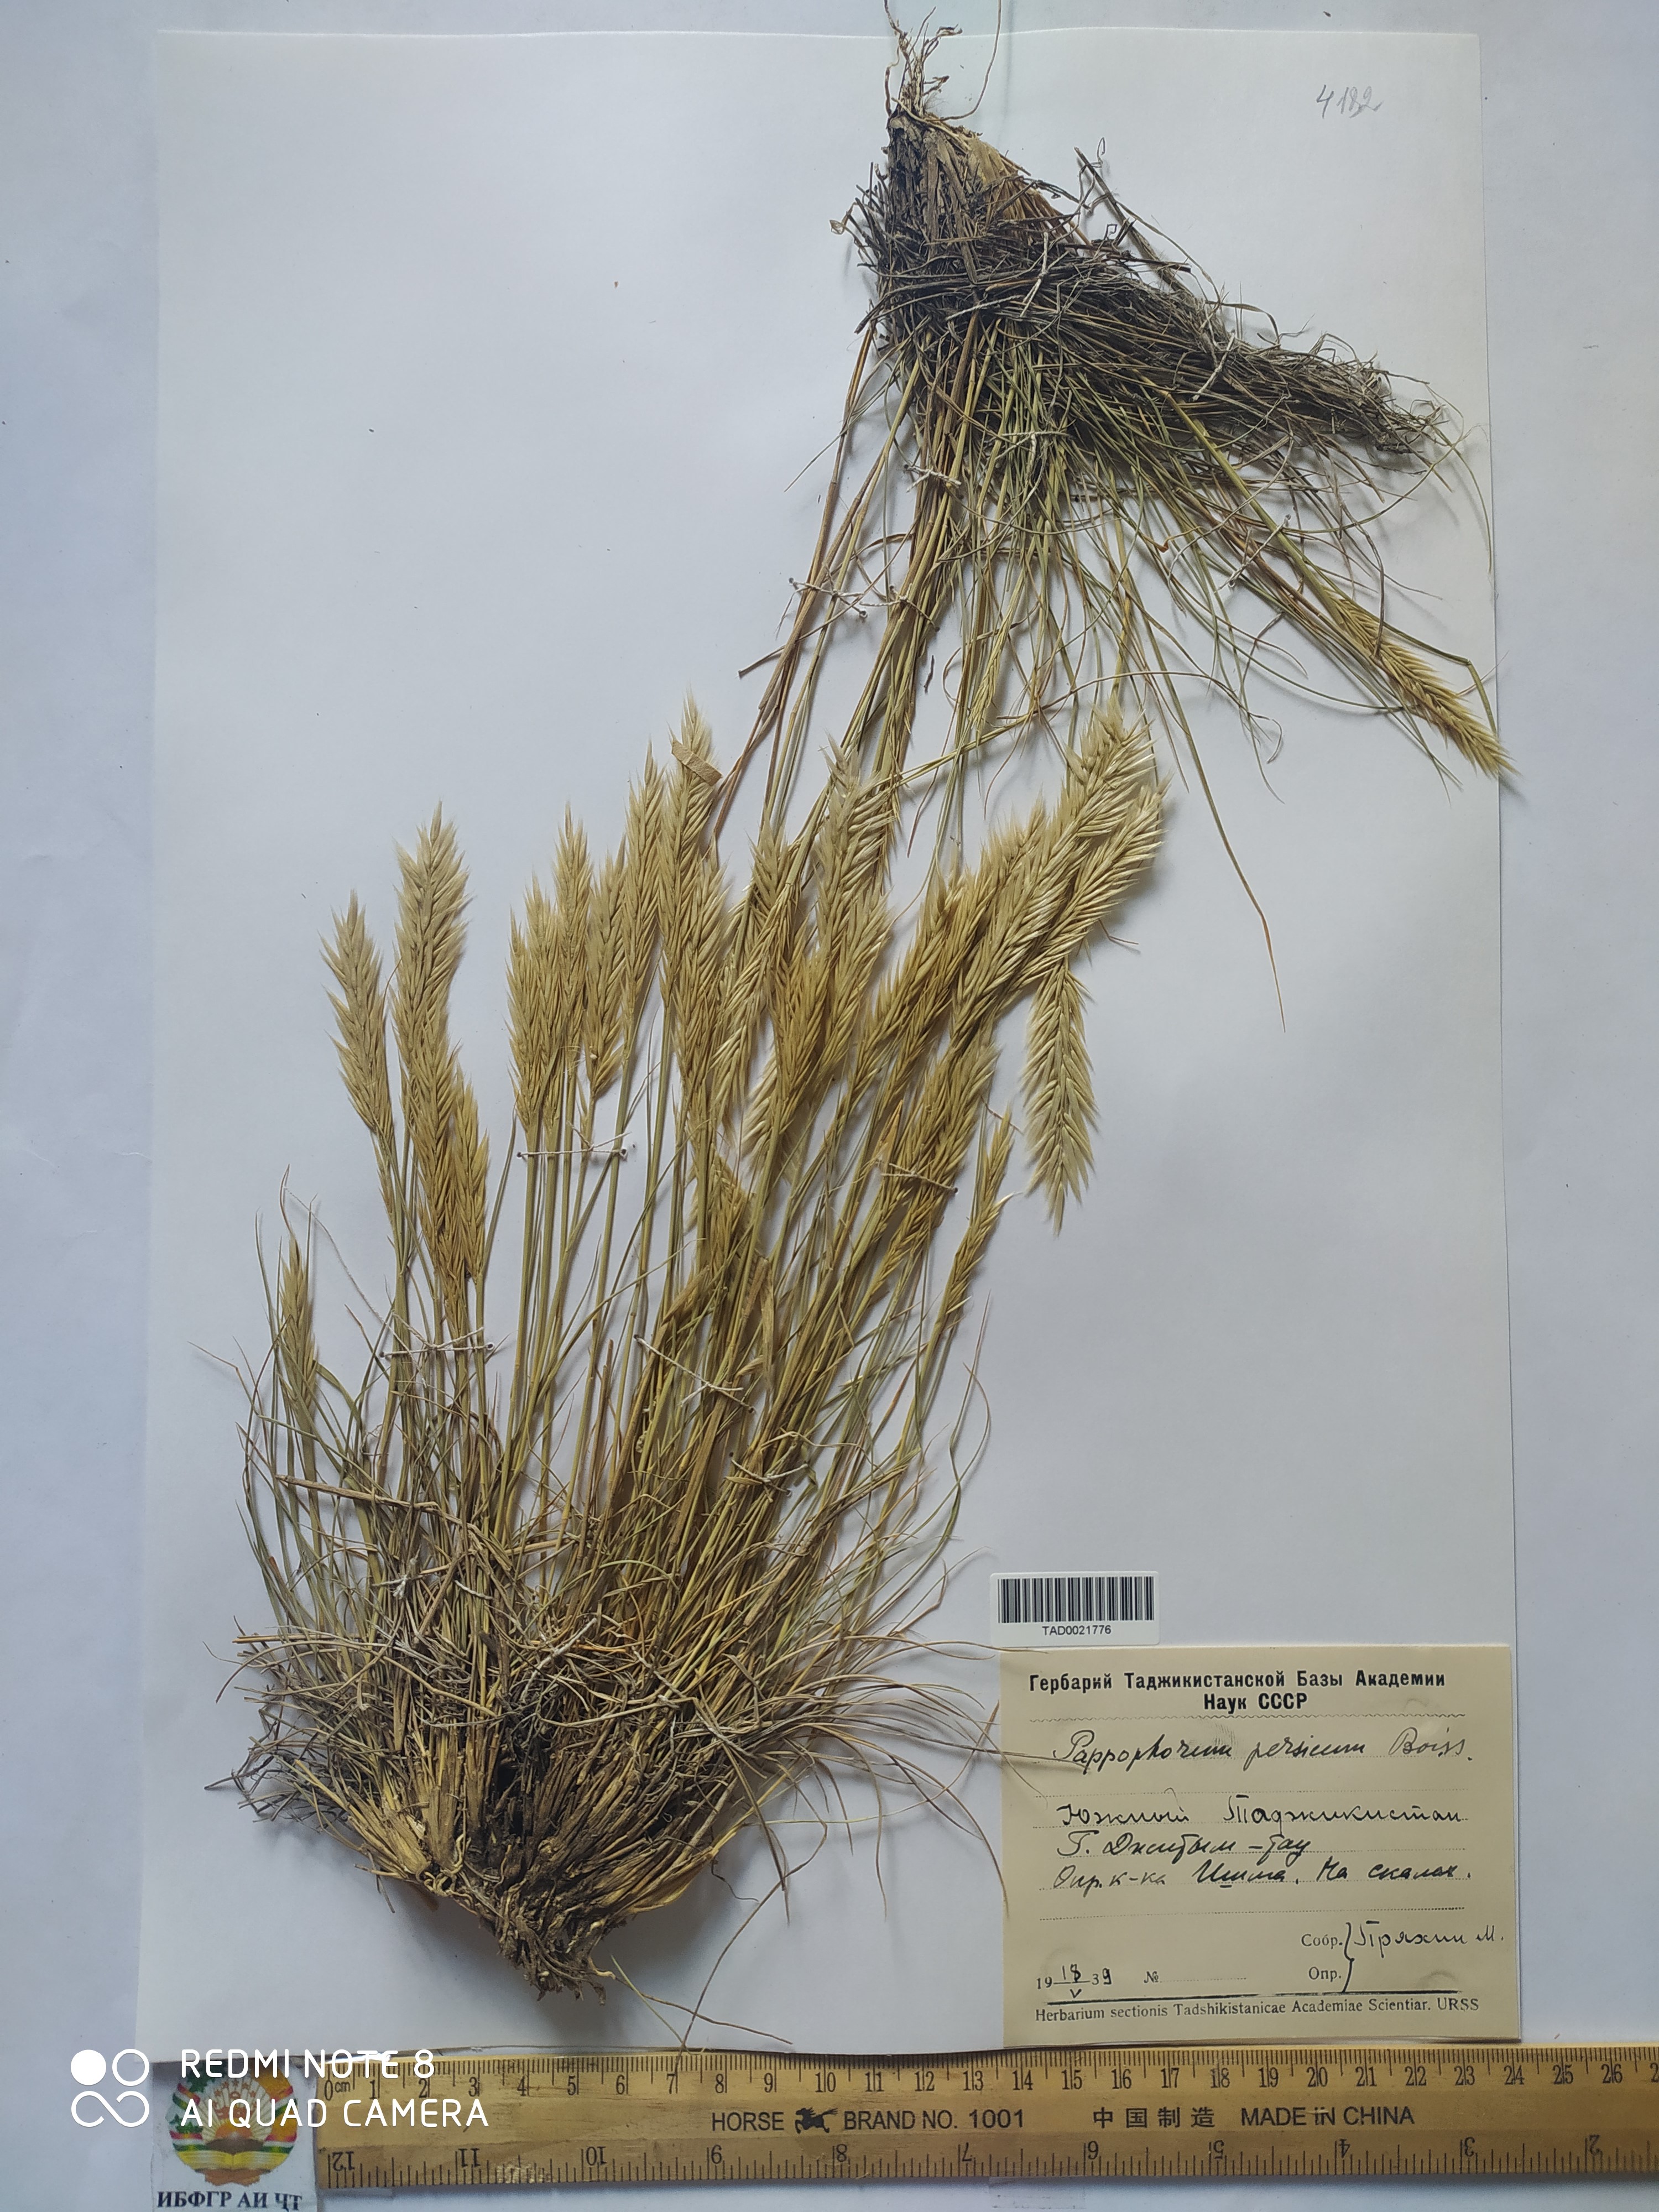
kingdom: Plantae
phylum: Tracheophyta
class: Liliopsida
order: Poales
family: Poaceae
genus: Enneapogon
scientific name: Enneapogon persicus
